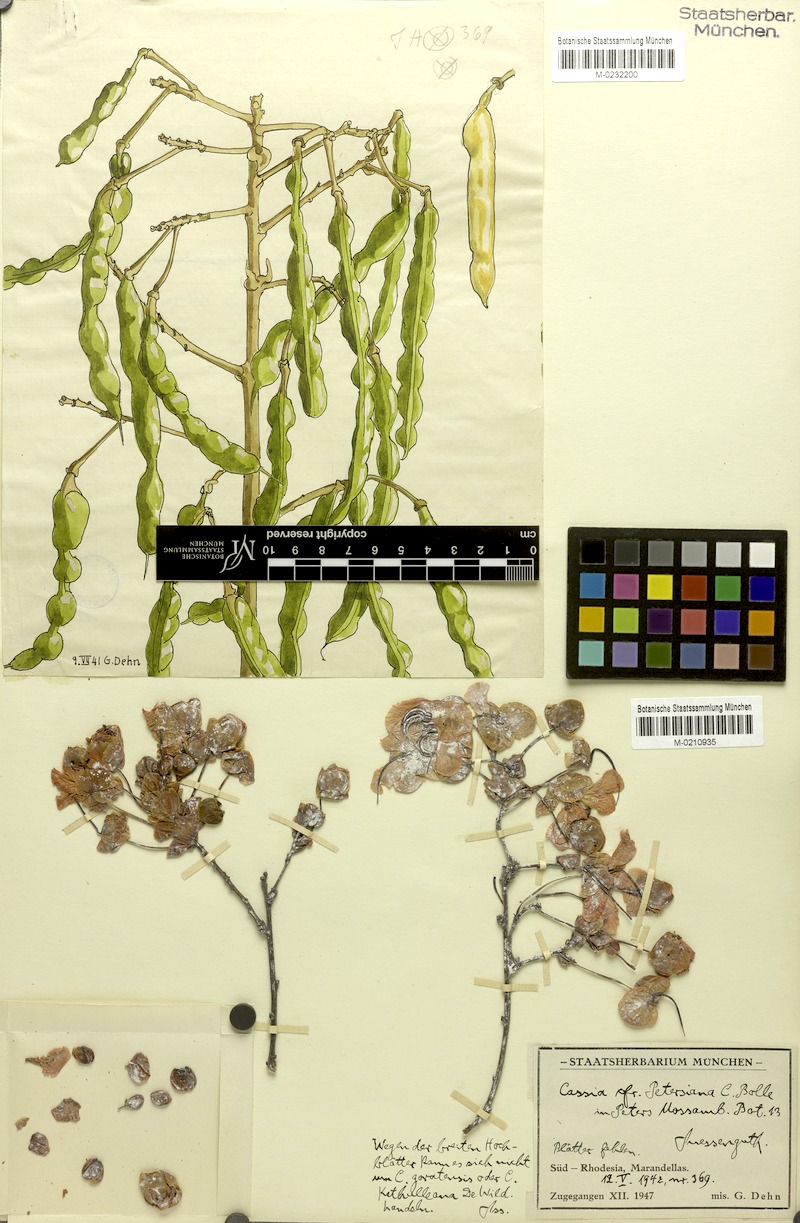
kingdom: Plantae
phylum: Tracheophyta
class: Magnoliopsida
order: Fabales
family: Fabaceae
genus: Senna
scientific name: Senna petersiana
